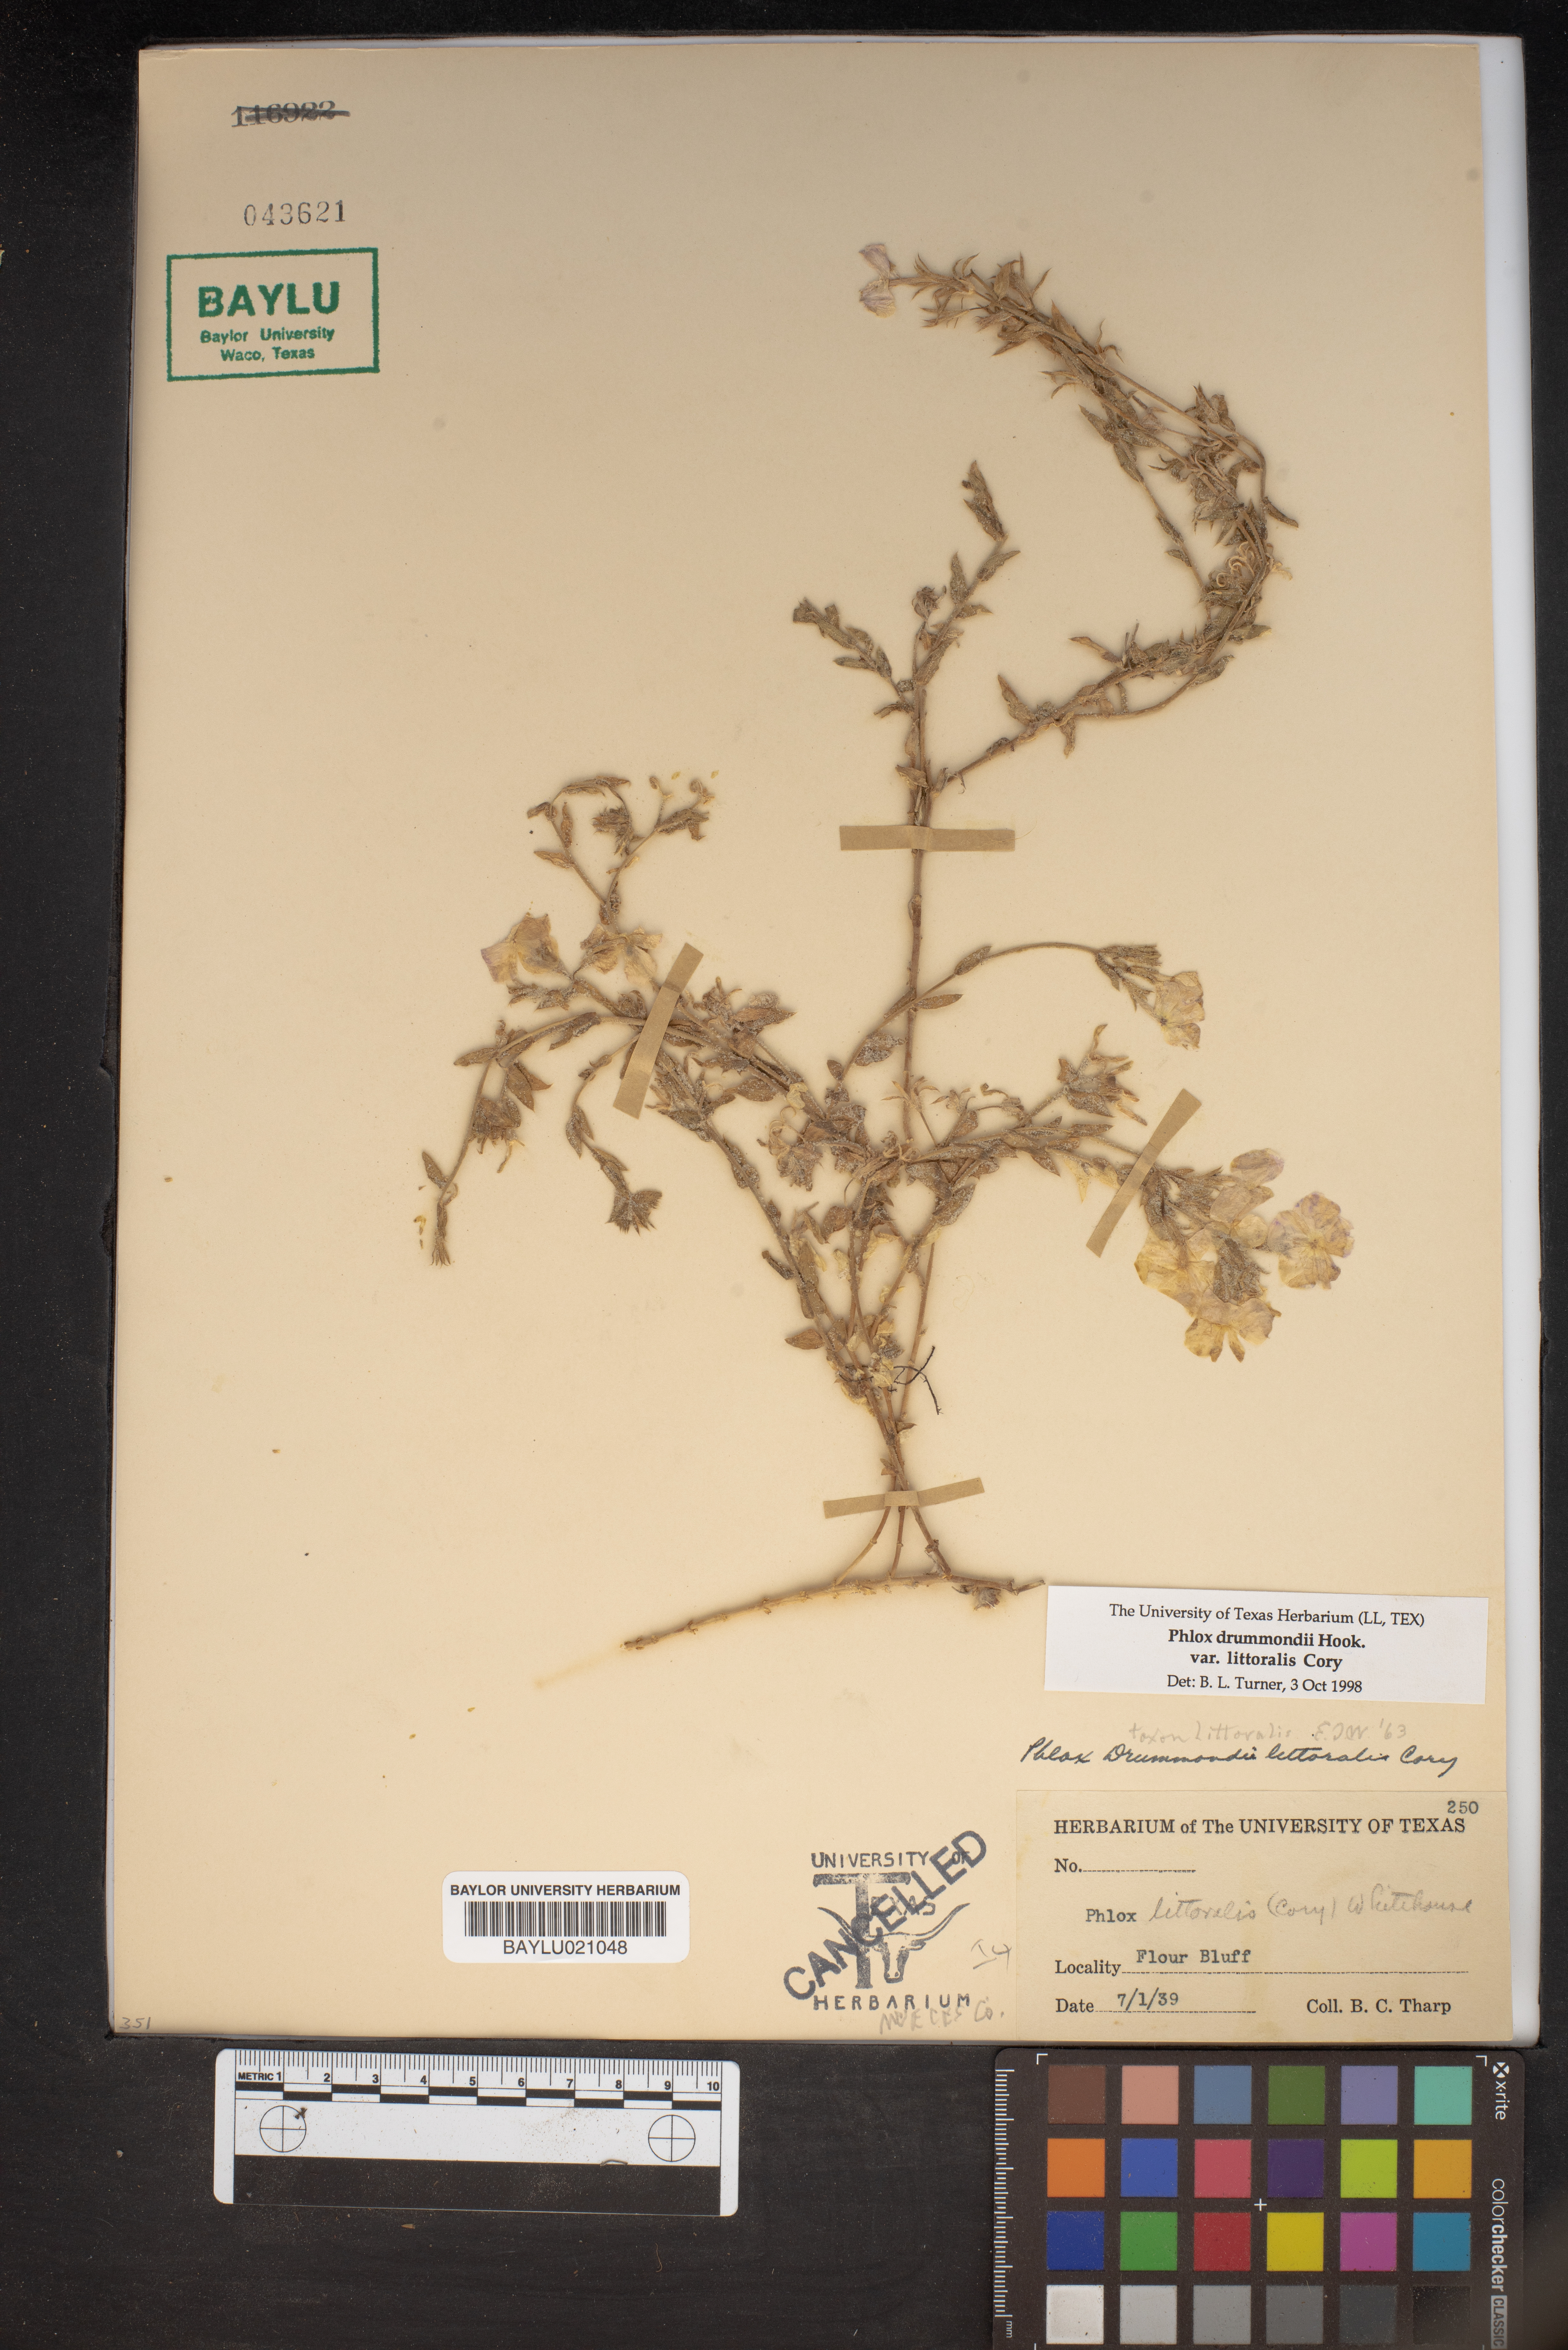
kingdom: Plantae
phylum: Tracheophyta
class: Magnoliopsida
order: Ericales
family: Polemoniaceae
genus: Phlox
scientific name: Phlox glabriflora
